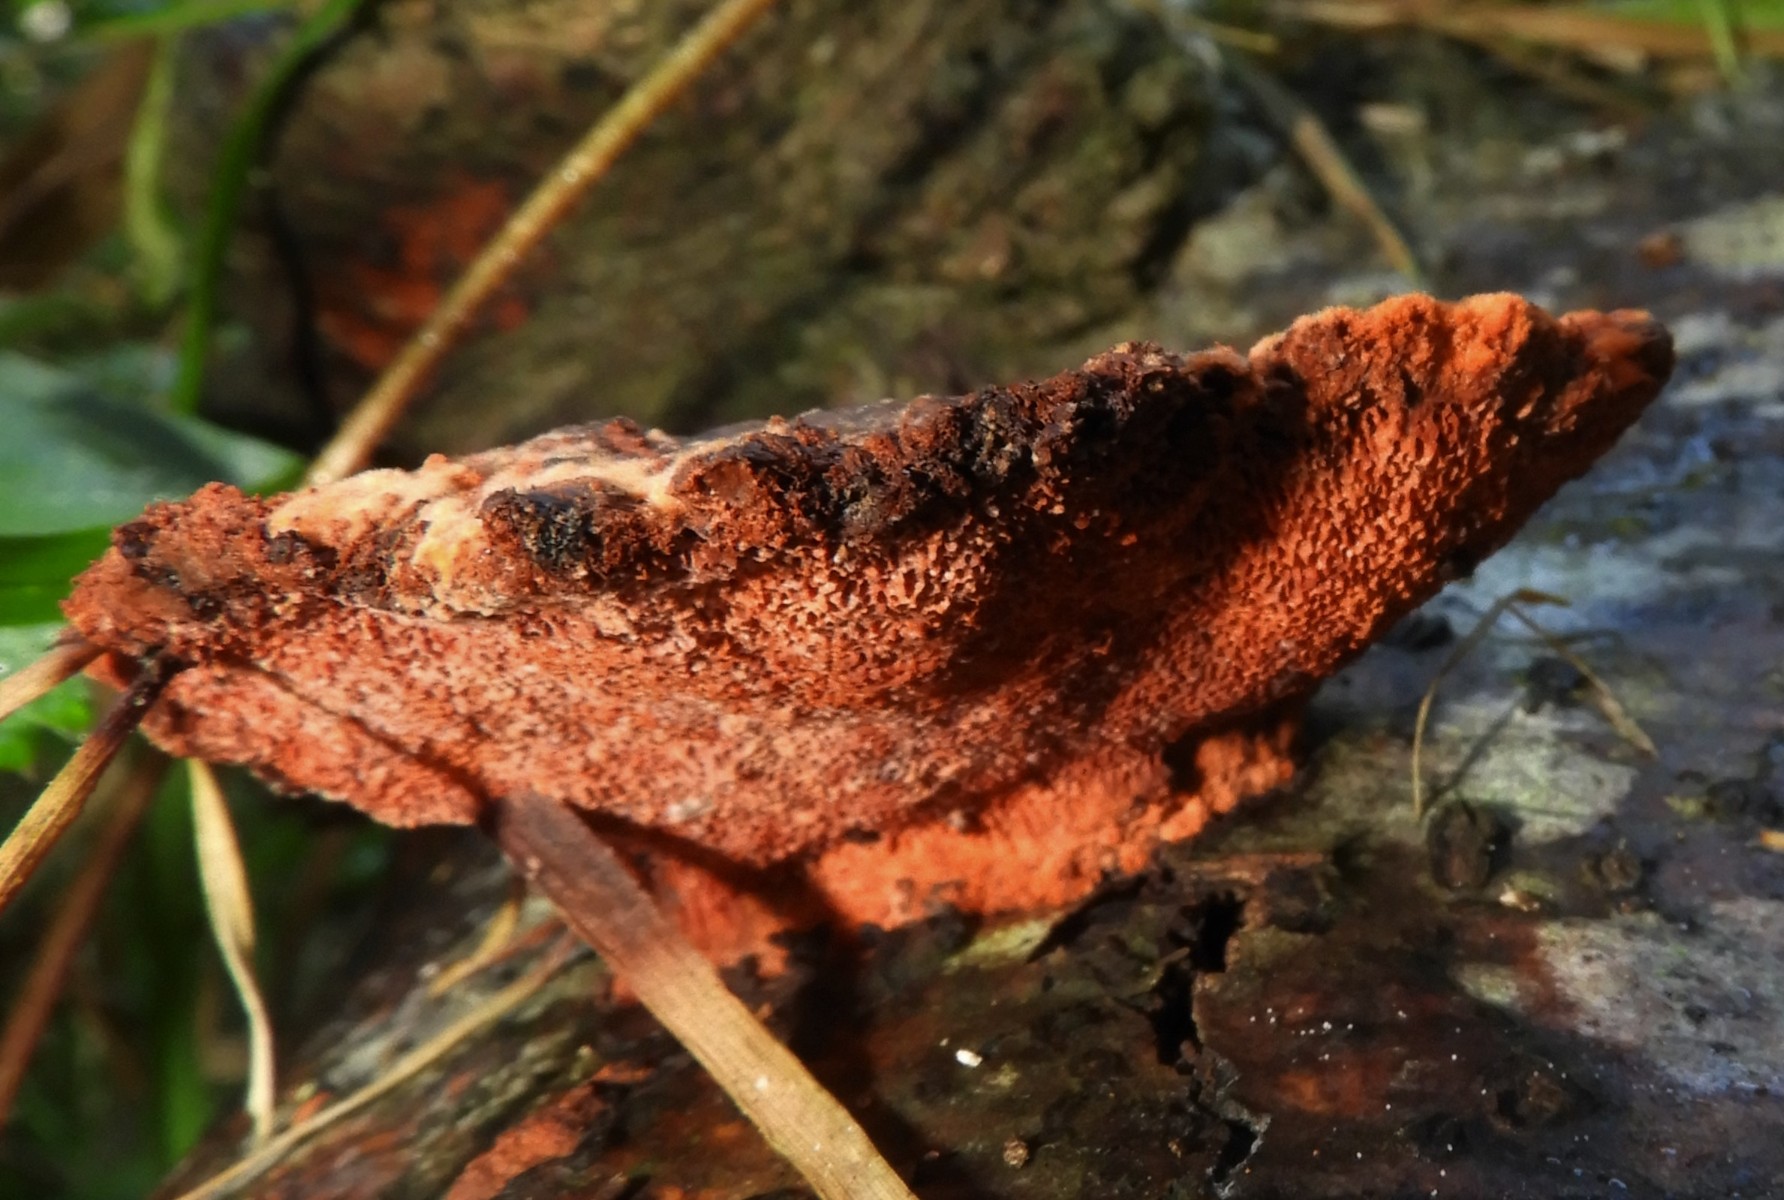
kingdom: Fungi
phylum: Basidiomycota
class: Agaricomycetes
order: Polyporales
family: Polyporaceae
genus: Trametes
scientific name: Trametes cinnabarina
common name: cinnoberporesvamp
